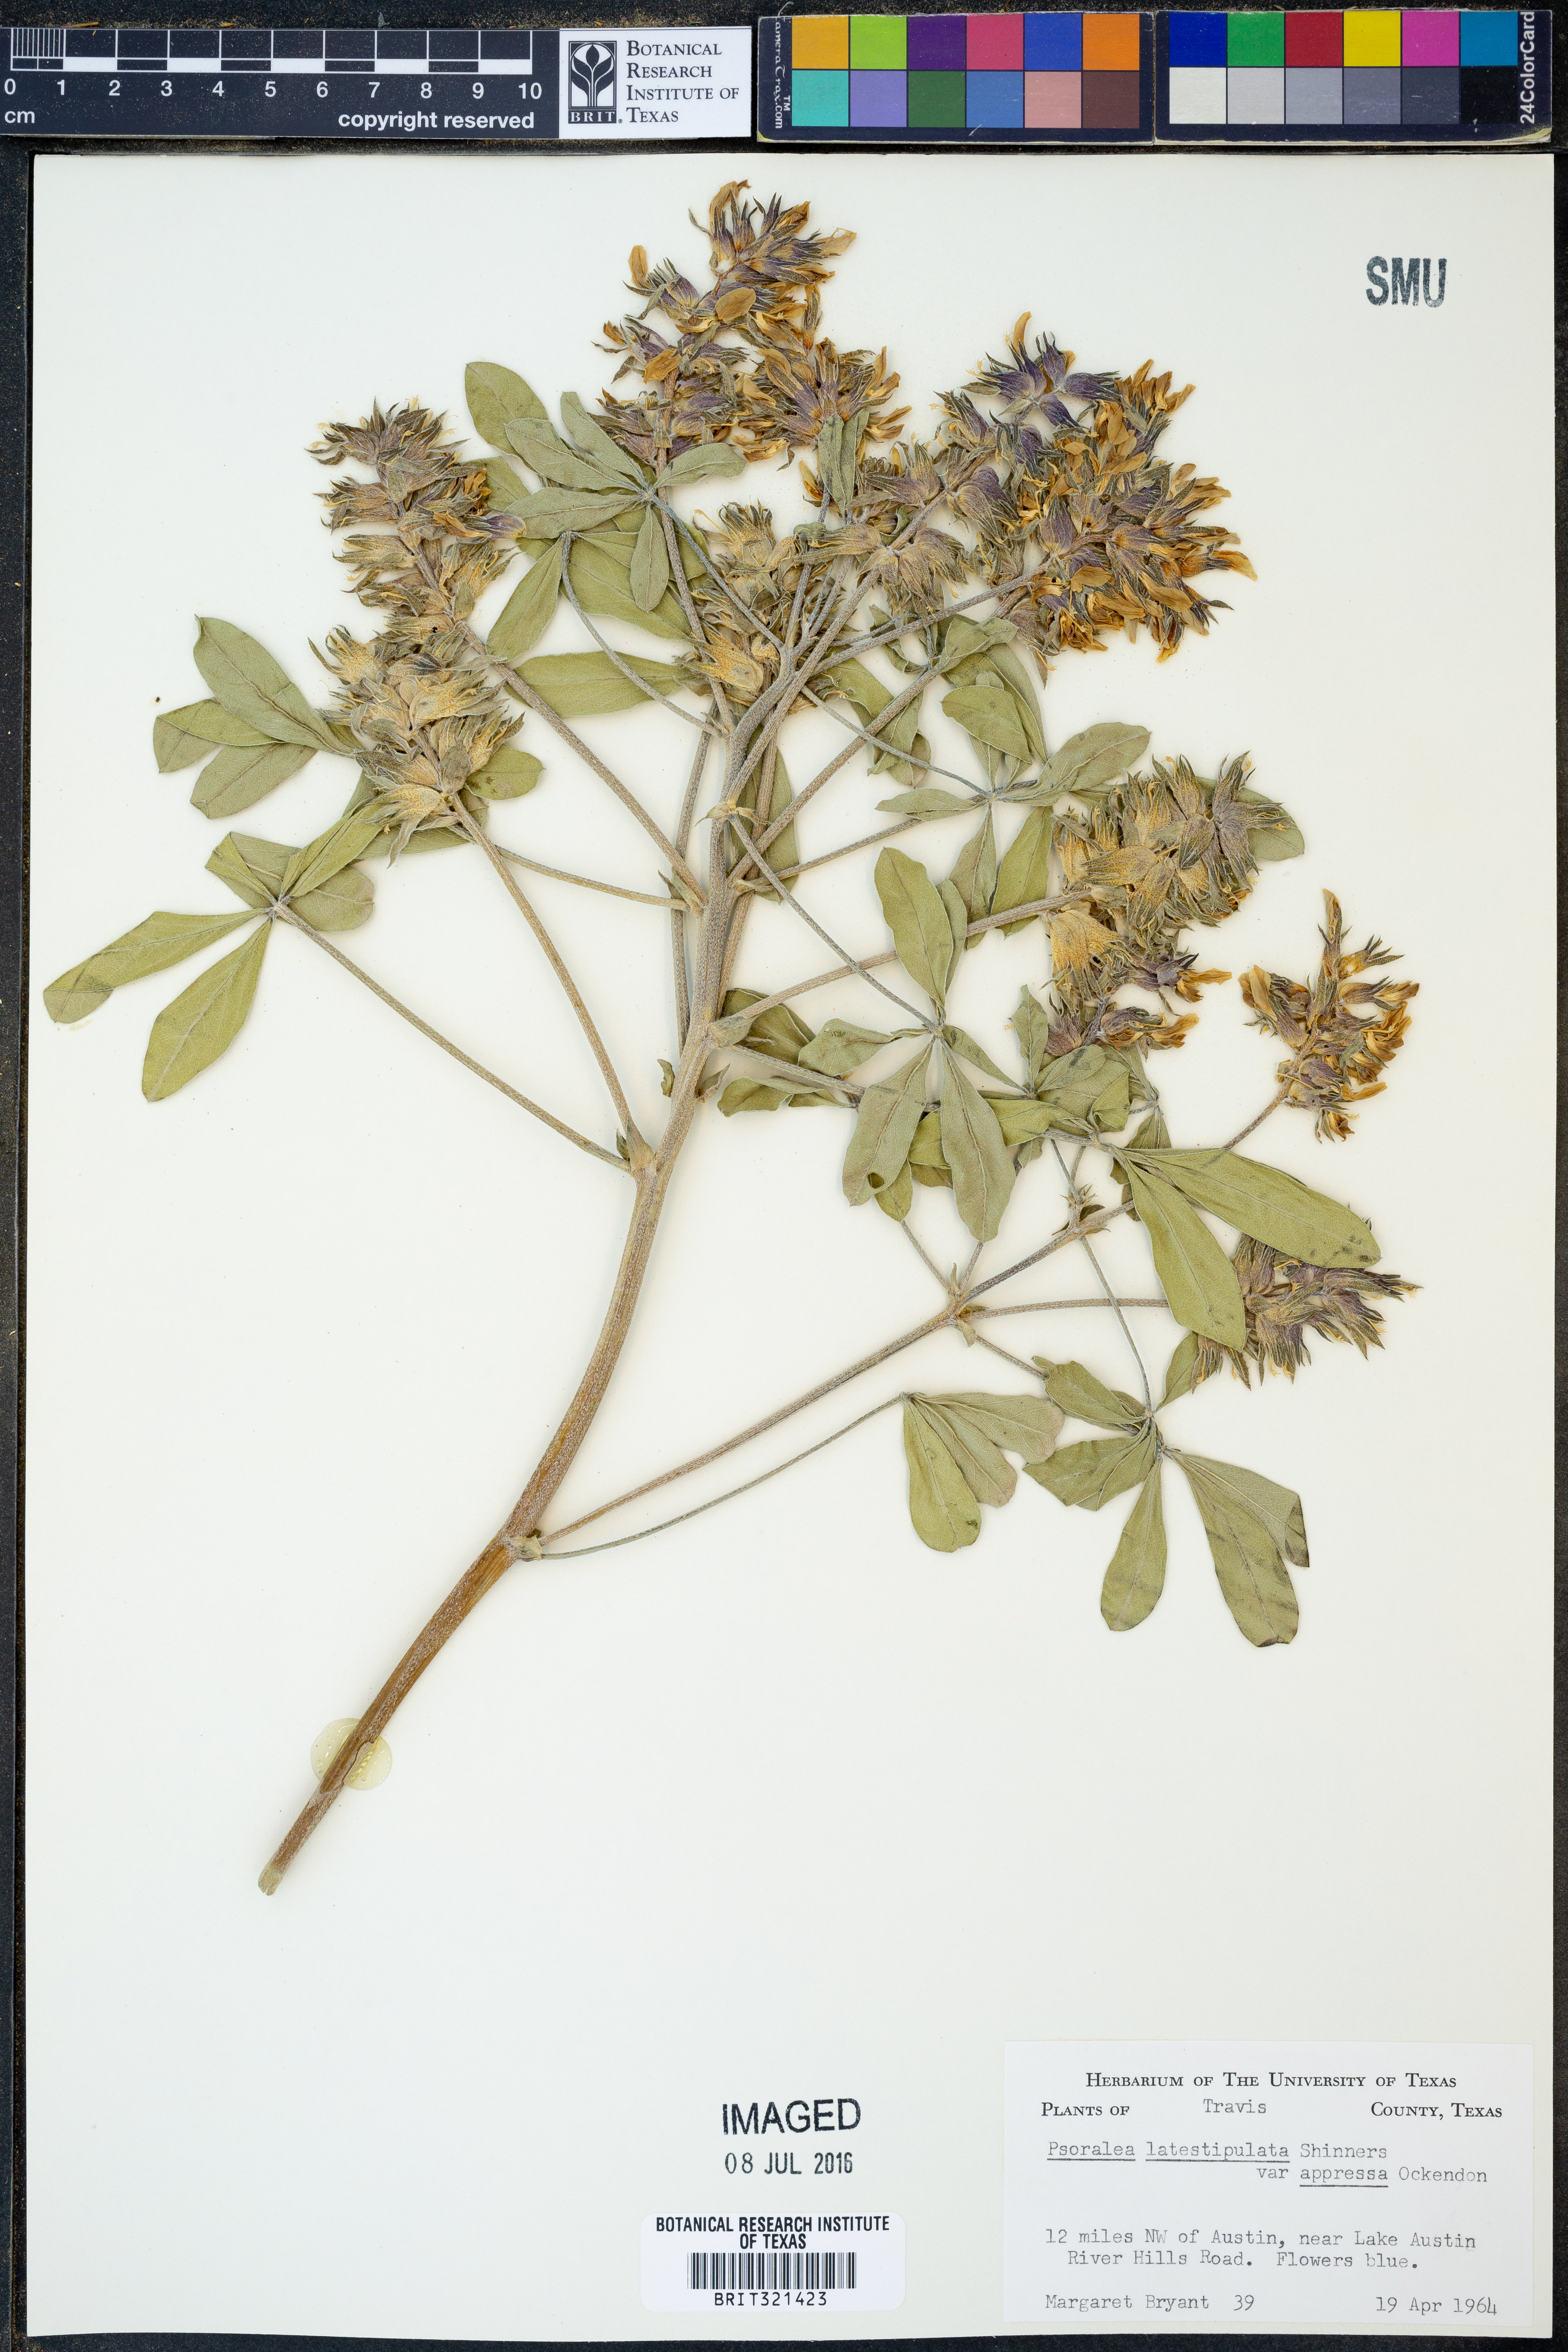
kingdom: Plantae
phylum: Tracheophyta
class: Magnoliopsida
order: Fabales
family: Fabaceae
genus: Pediomelum
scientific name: Pediomelum latestipulatum
